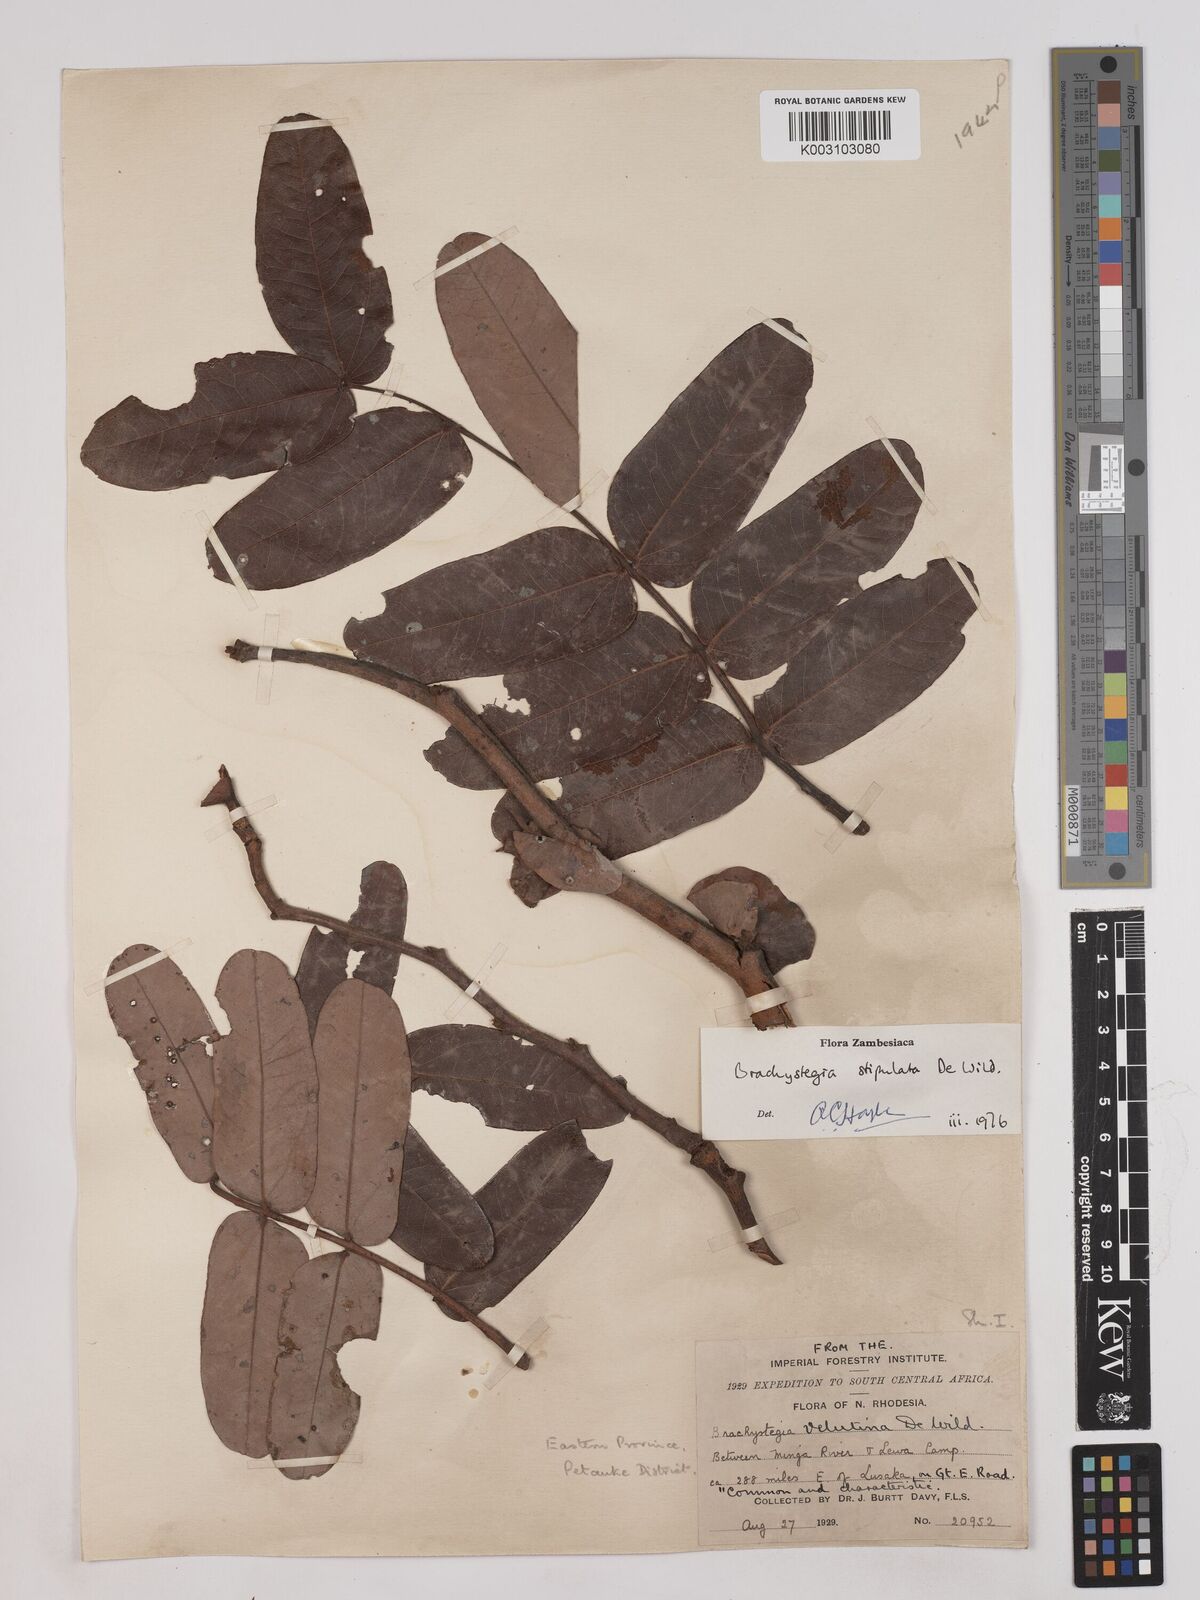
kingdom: Plantae
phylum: Tracheophyta
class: Magnoliopsida
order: Fabales
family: Fabaceae
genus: Brachystegia
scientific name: Brachystegia stipulata
